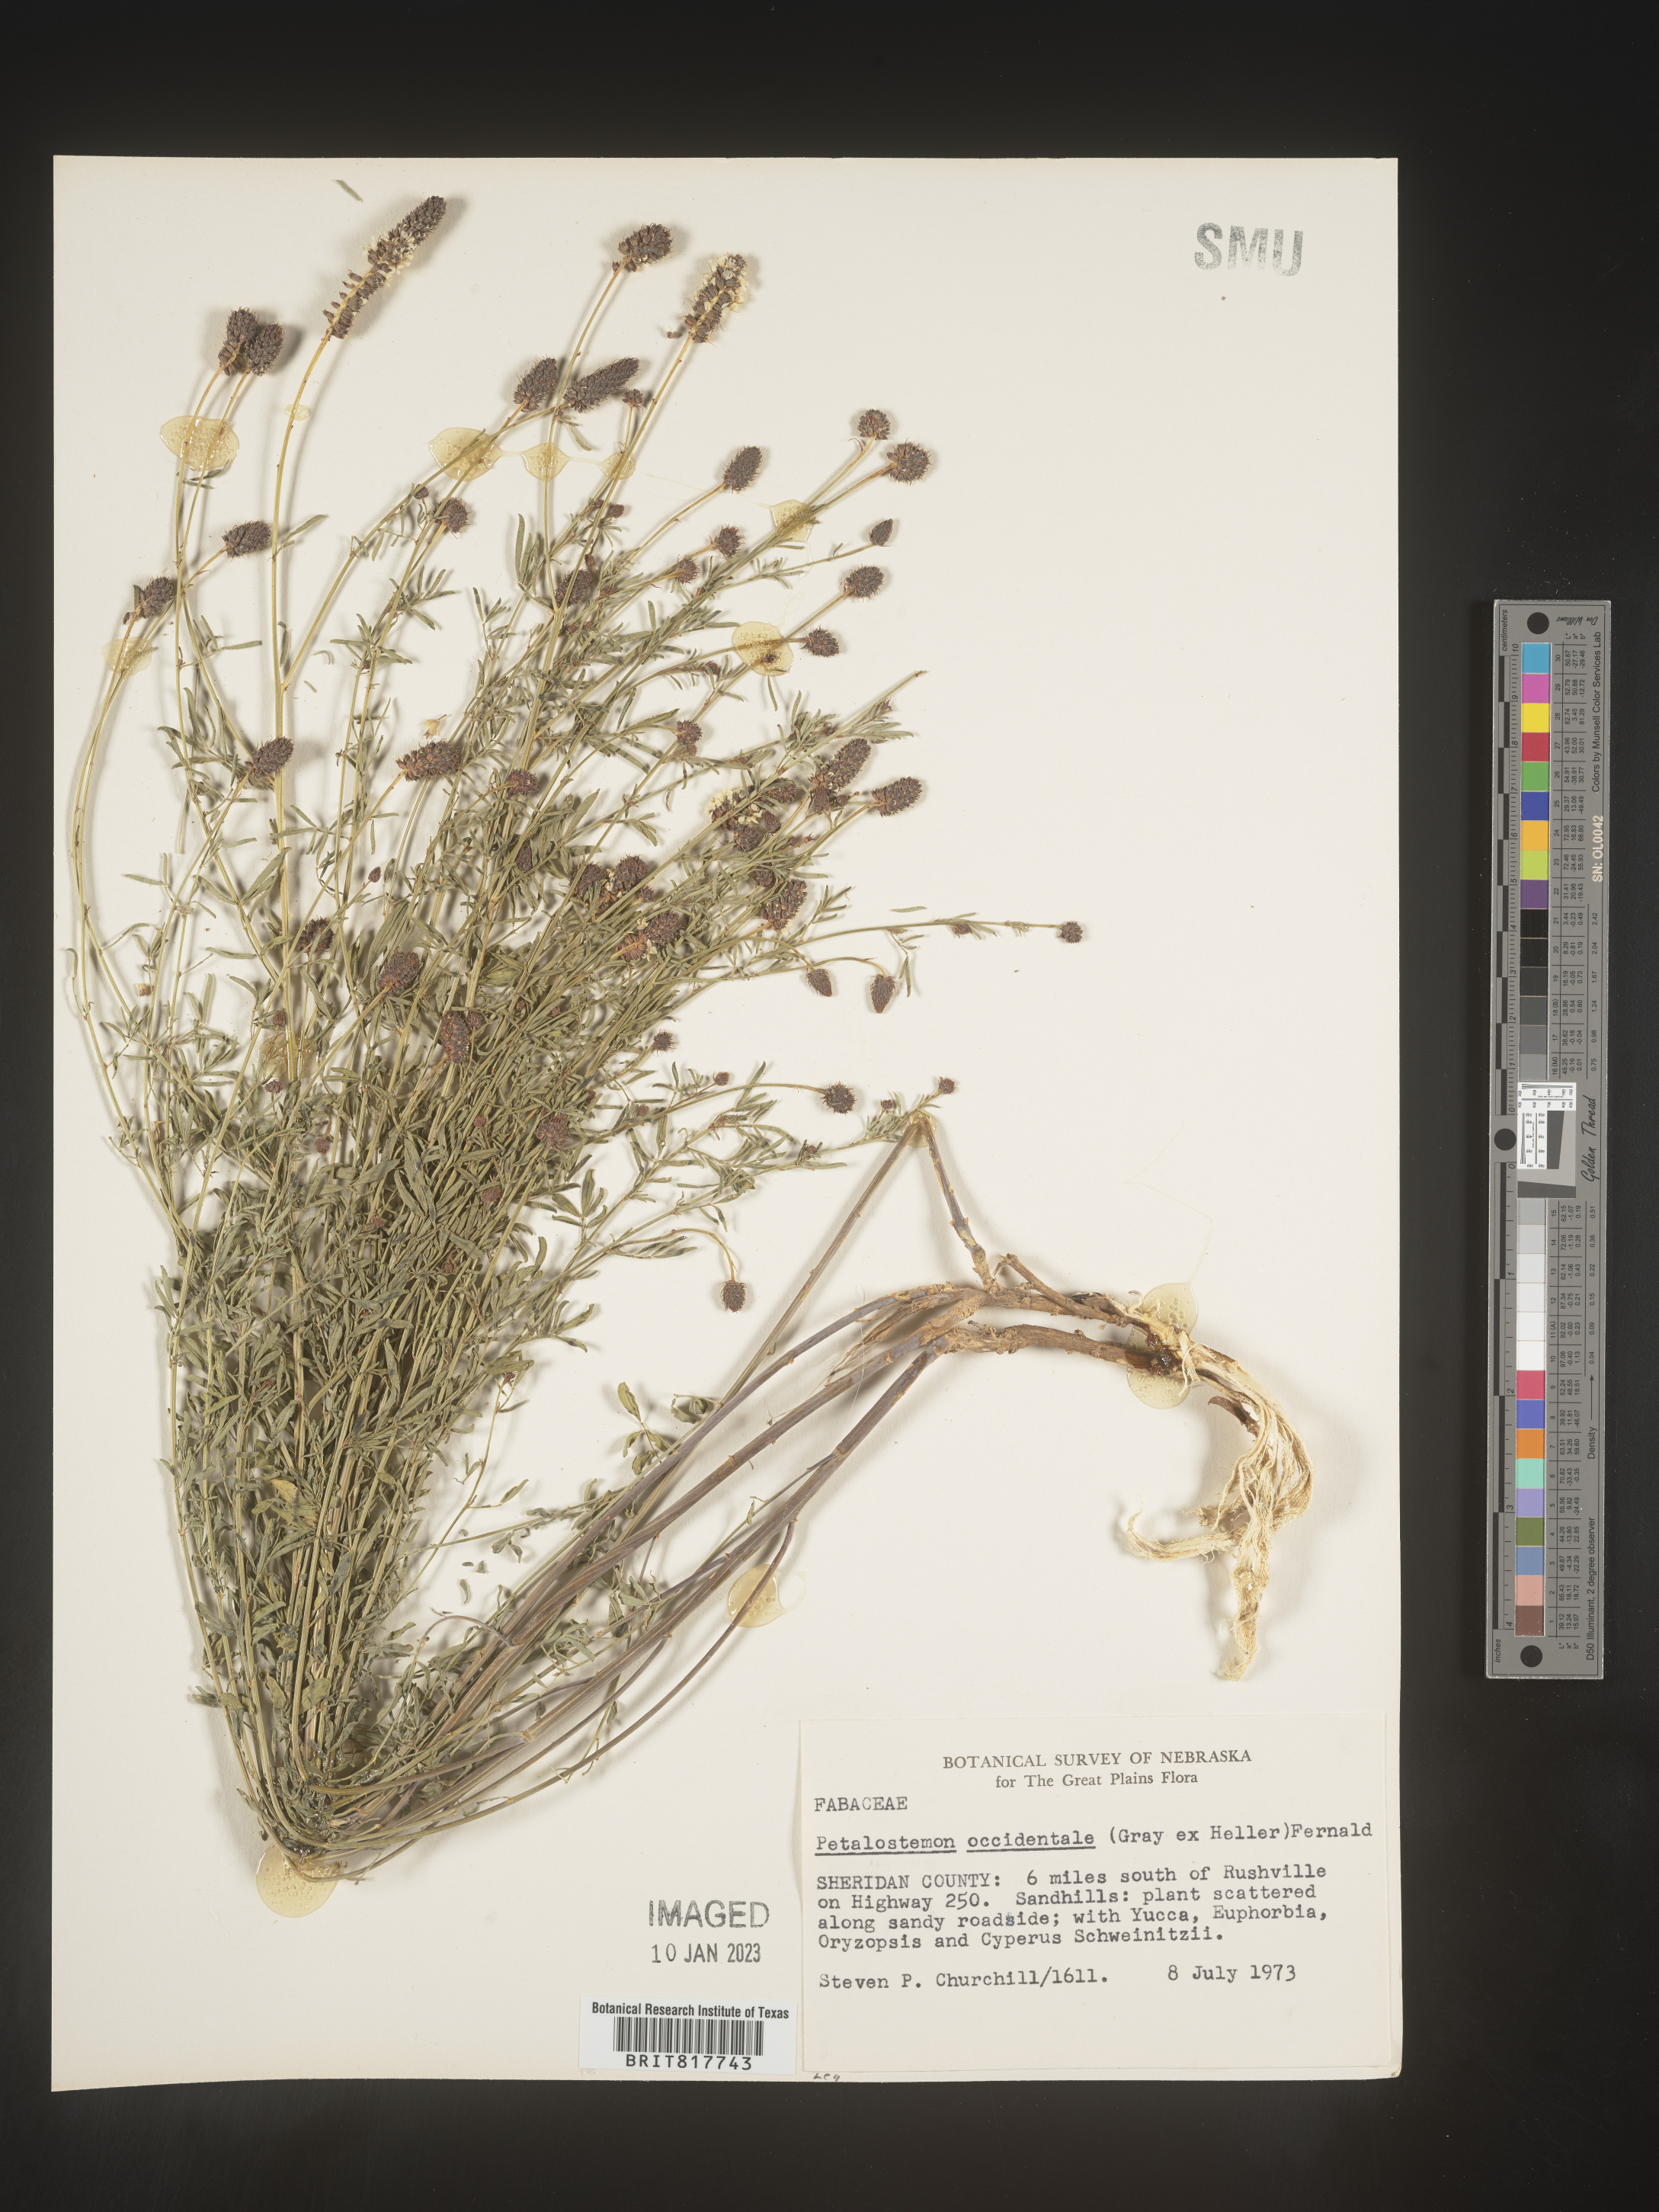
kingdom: Plantae
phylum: Tracheophyta
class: Magnoliopsida
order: Fabales
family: Fabaceae
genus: Dalea
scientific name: Dalea candida
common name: White prairie-clover
